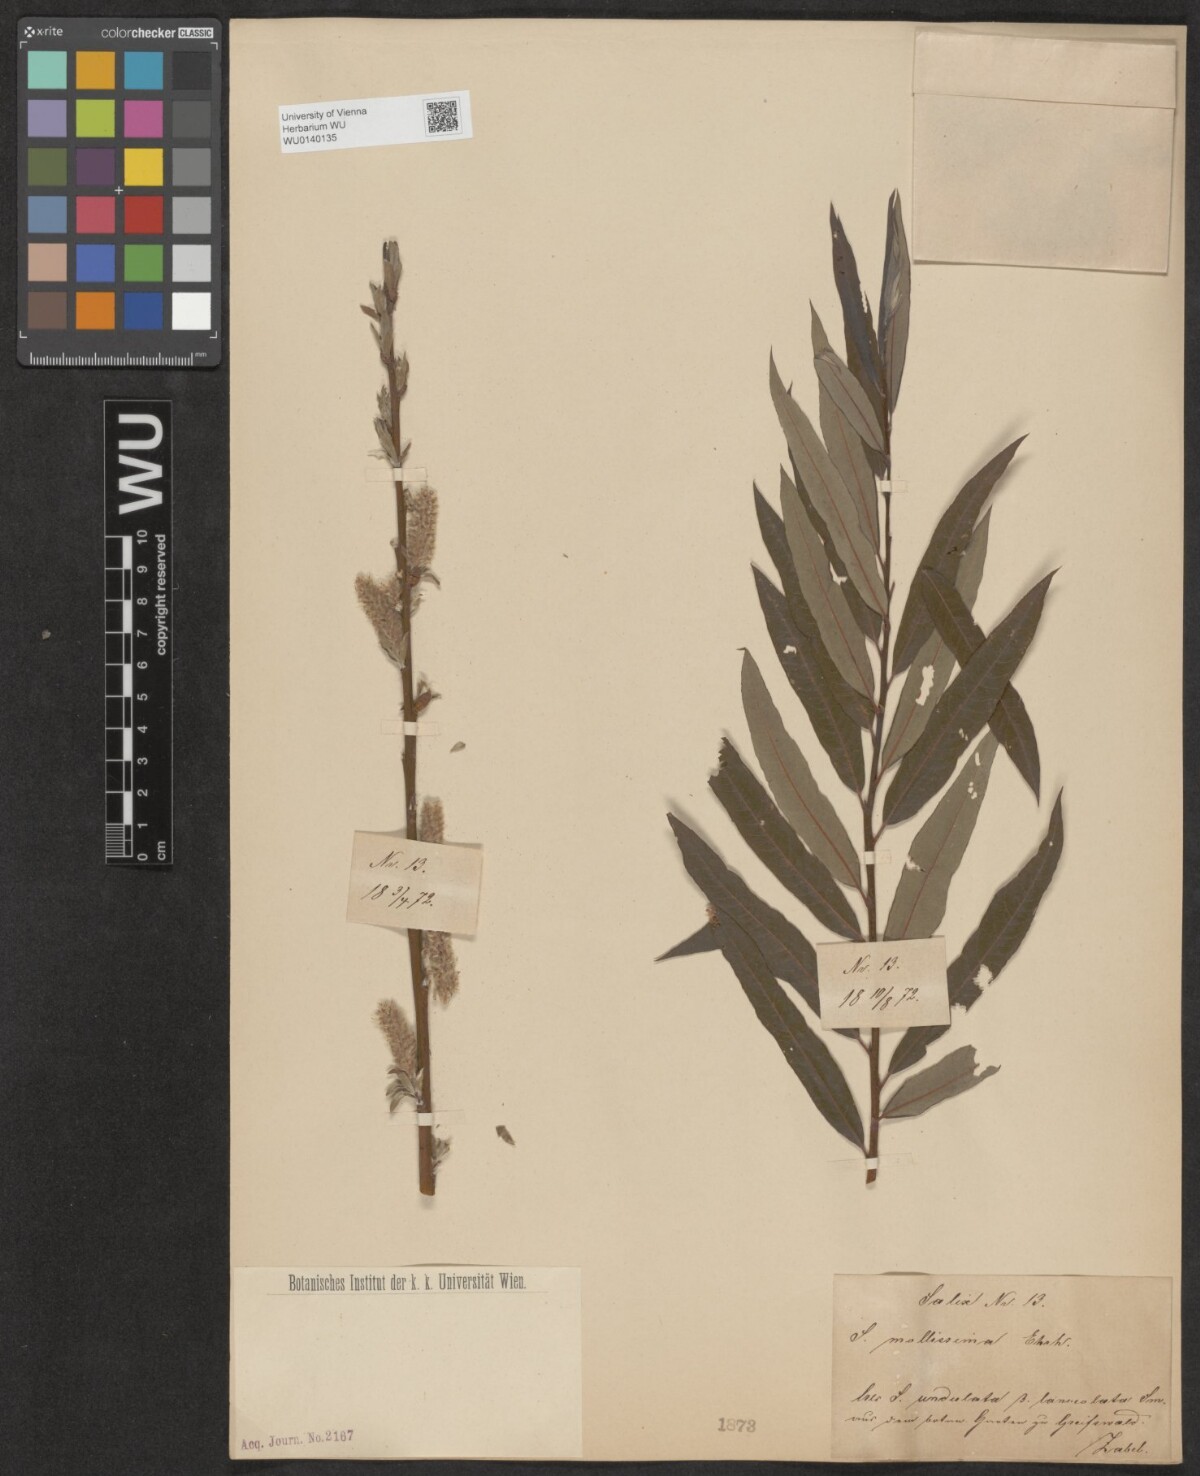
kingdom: Plantae
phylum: Tracheophyta
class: Magnoliopsida
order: Malpighiales
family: Salicaceae
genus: Salix
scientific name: Salix mollissima
